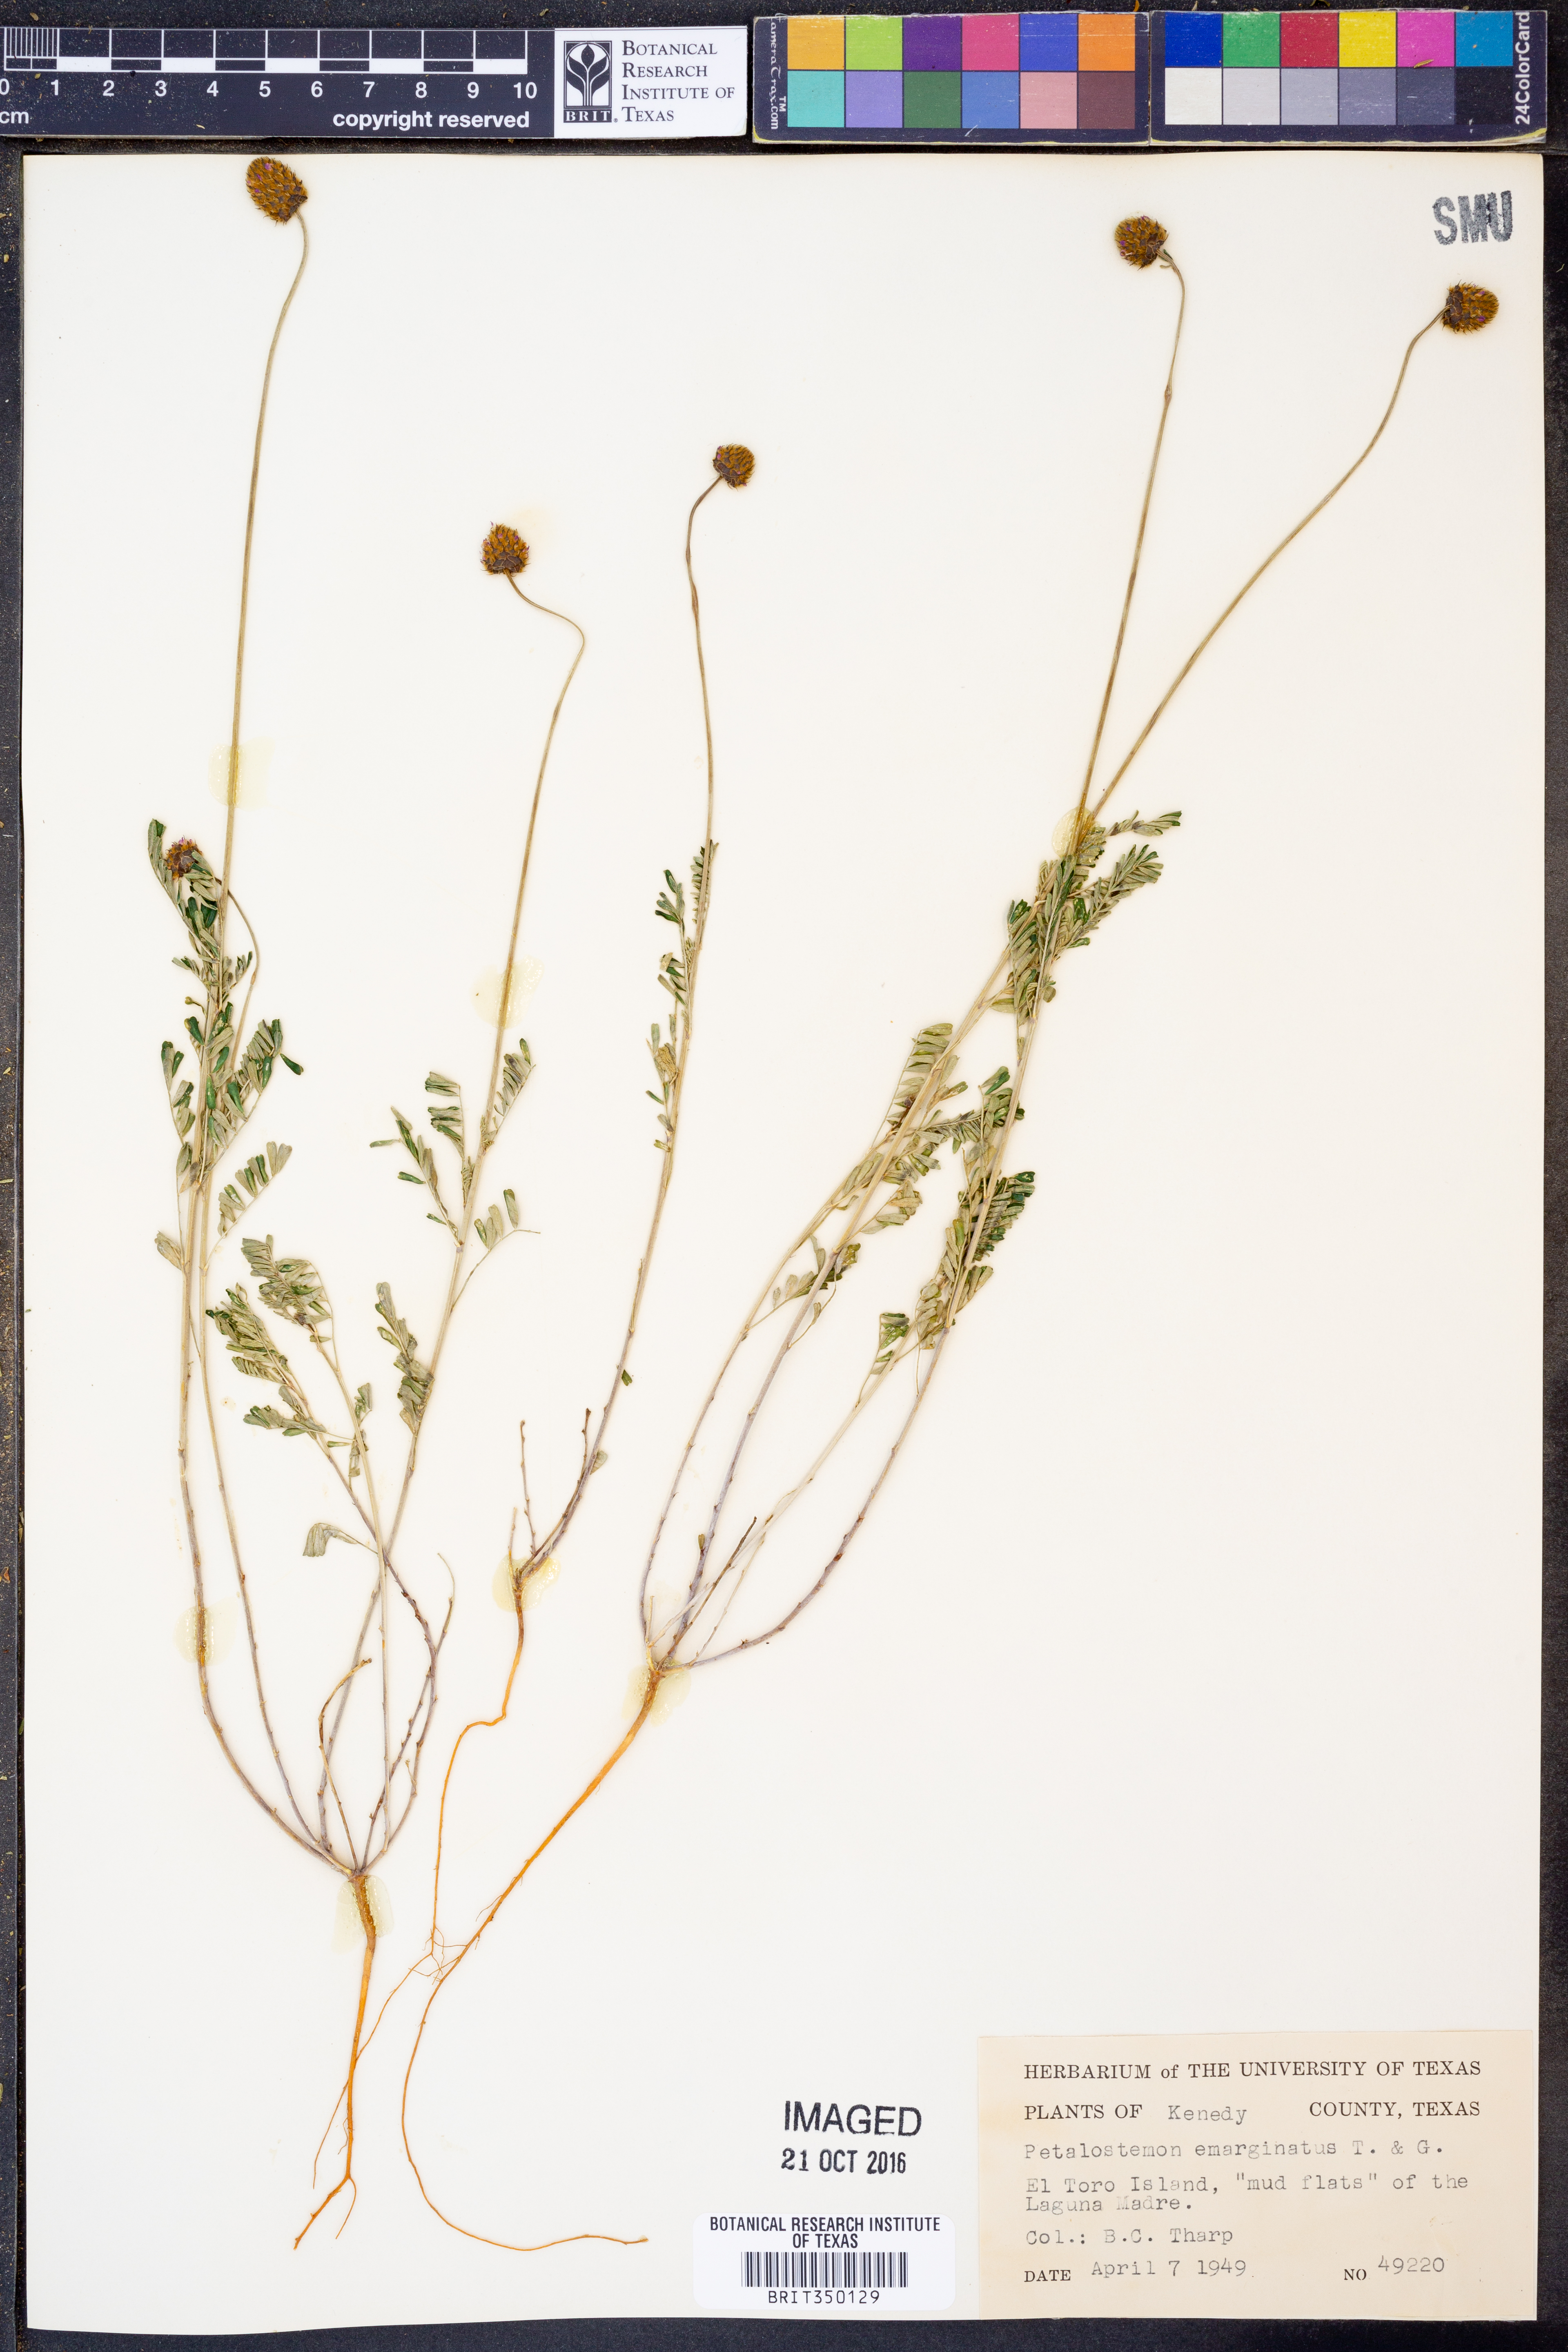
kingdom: Plantae
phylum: Tracheophyta
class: Magnoliopsida
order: Fabales
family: Fabaceae
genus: Dalea
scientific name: Dalea emarginata
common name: Wedgeleaf prairie clover
